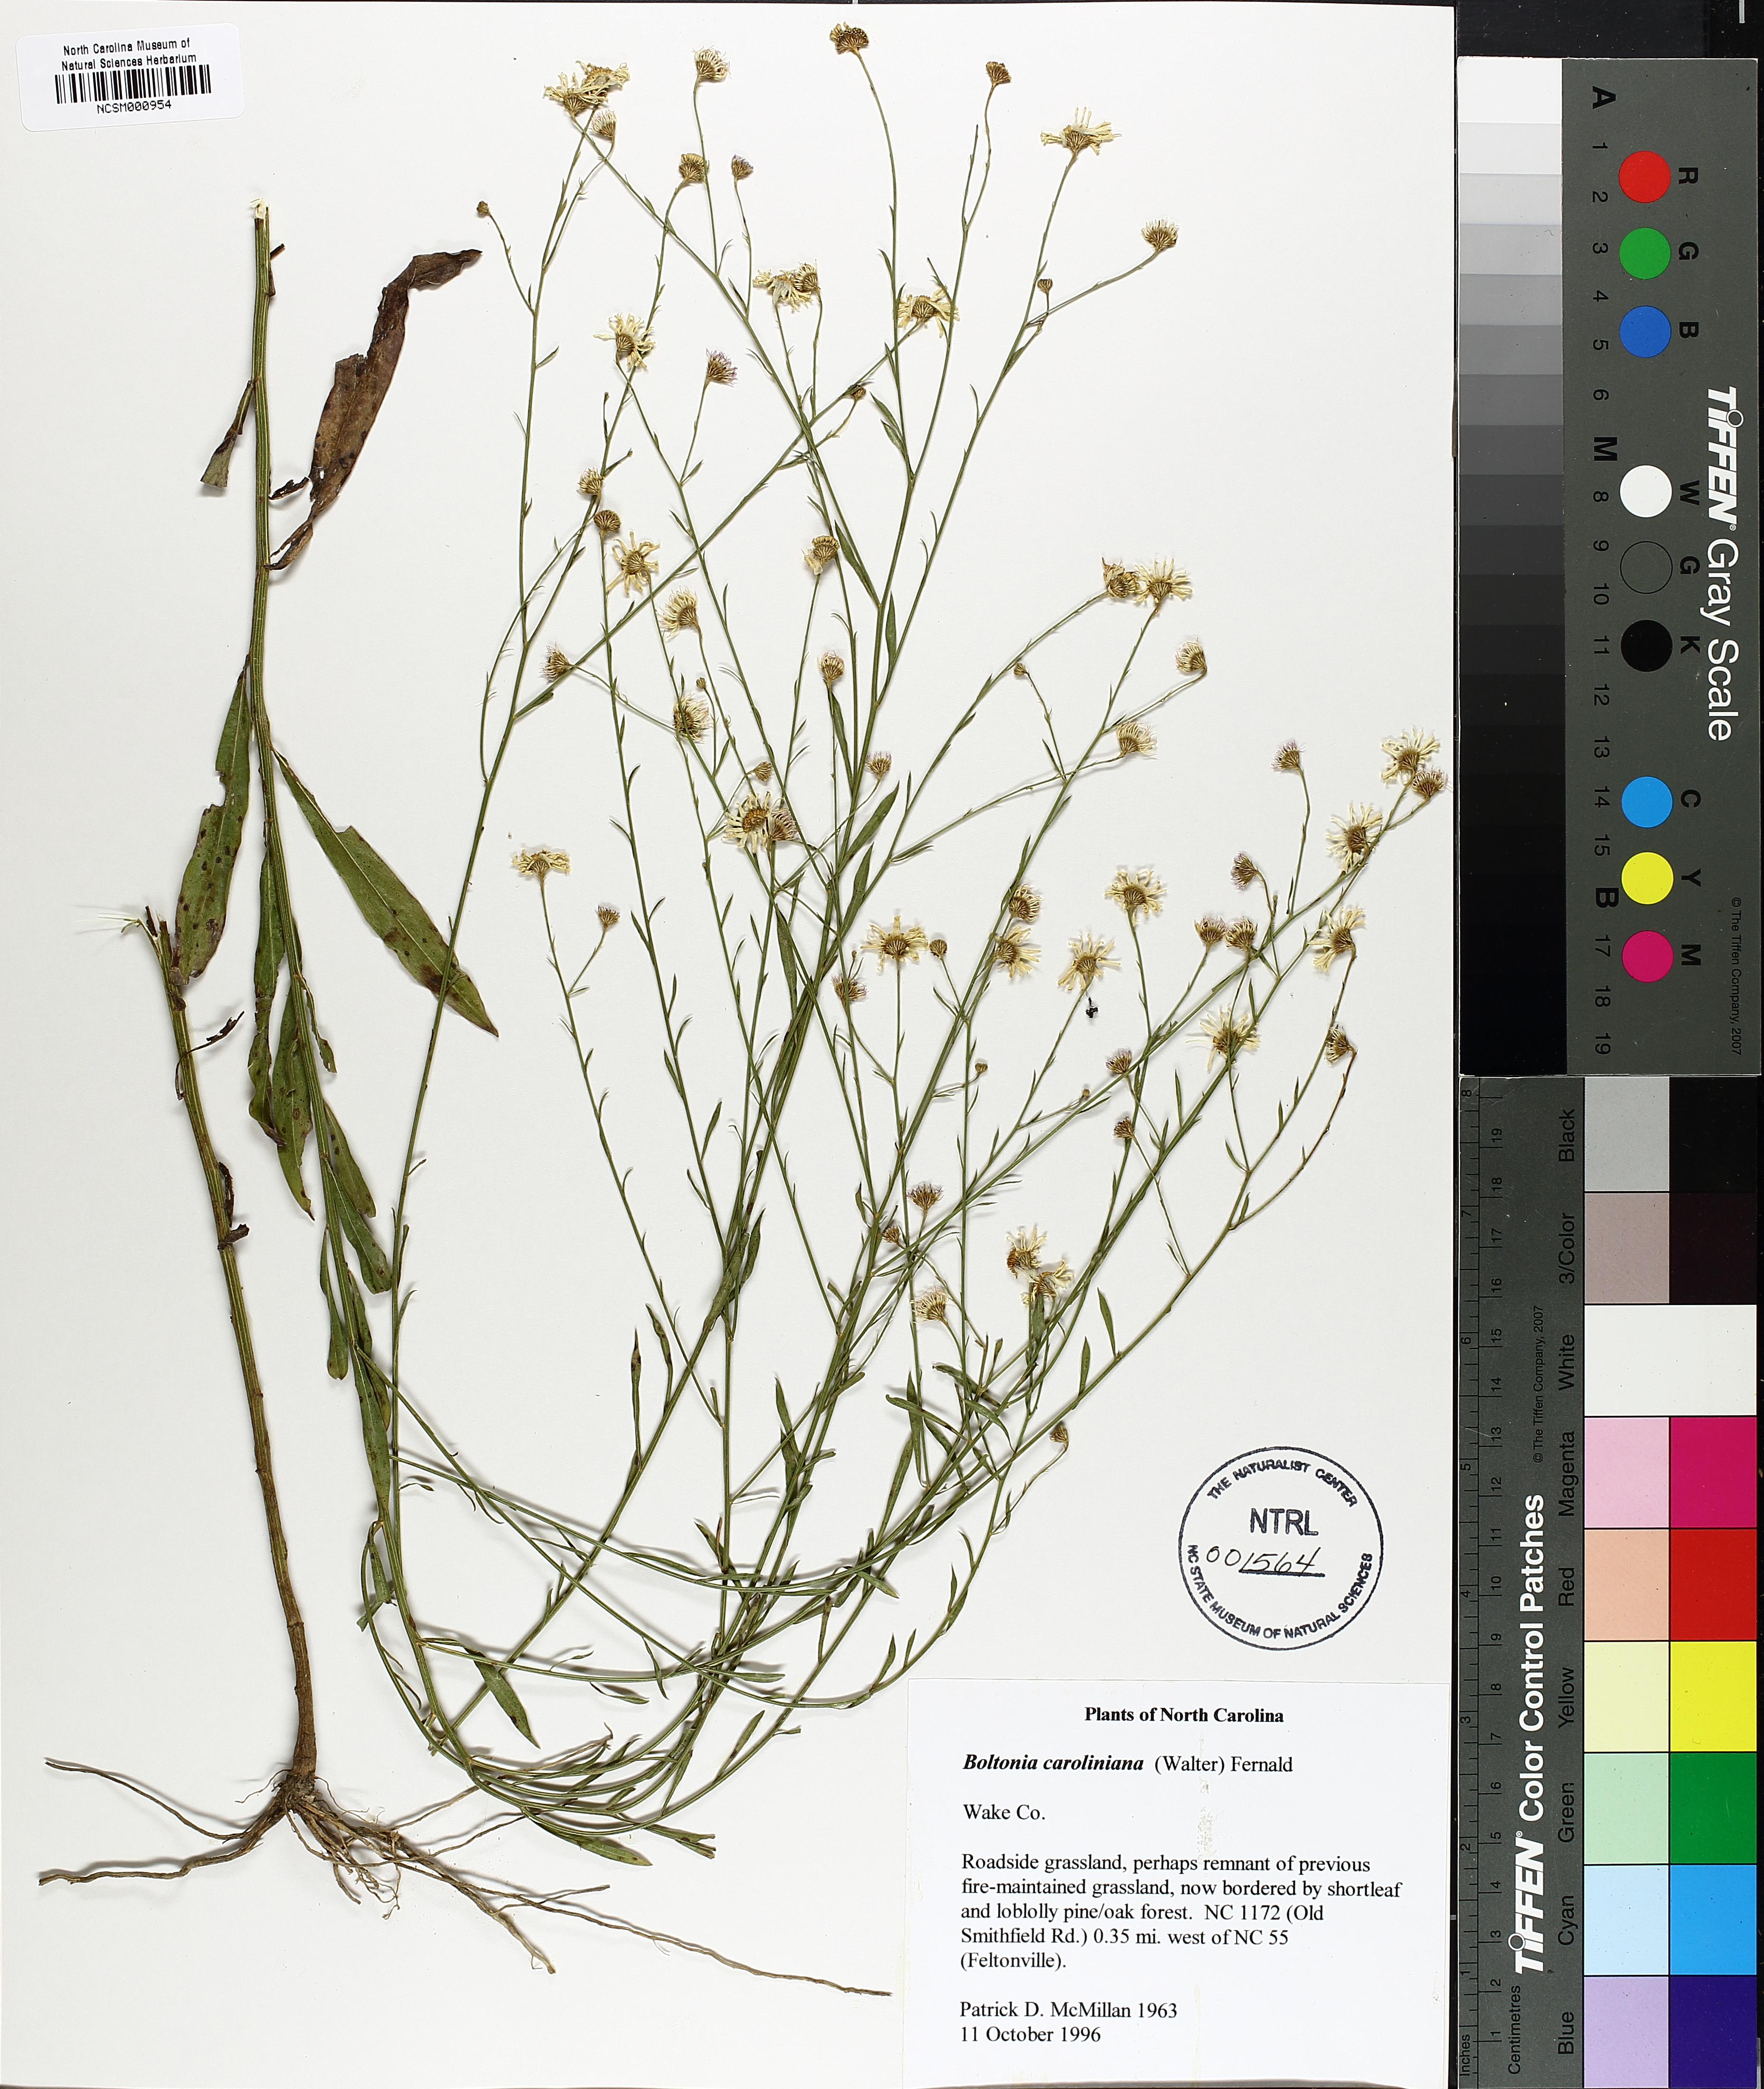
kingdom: Plantae
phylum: Tracheophyta
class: Magnoliopsida
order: Asterales
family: Asteraceae
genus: Boltonia
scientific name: Boltonia caroliniana
